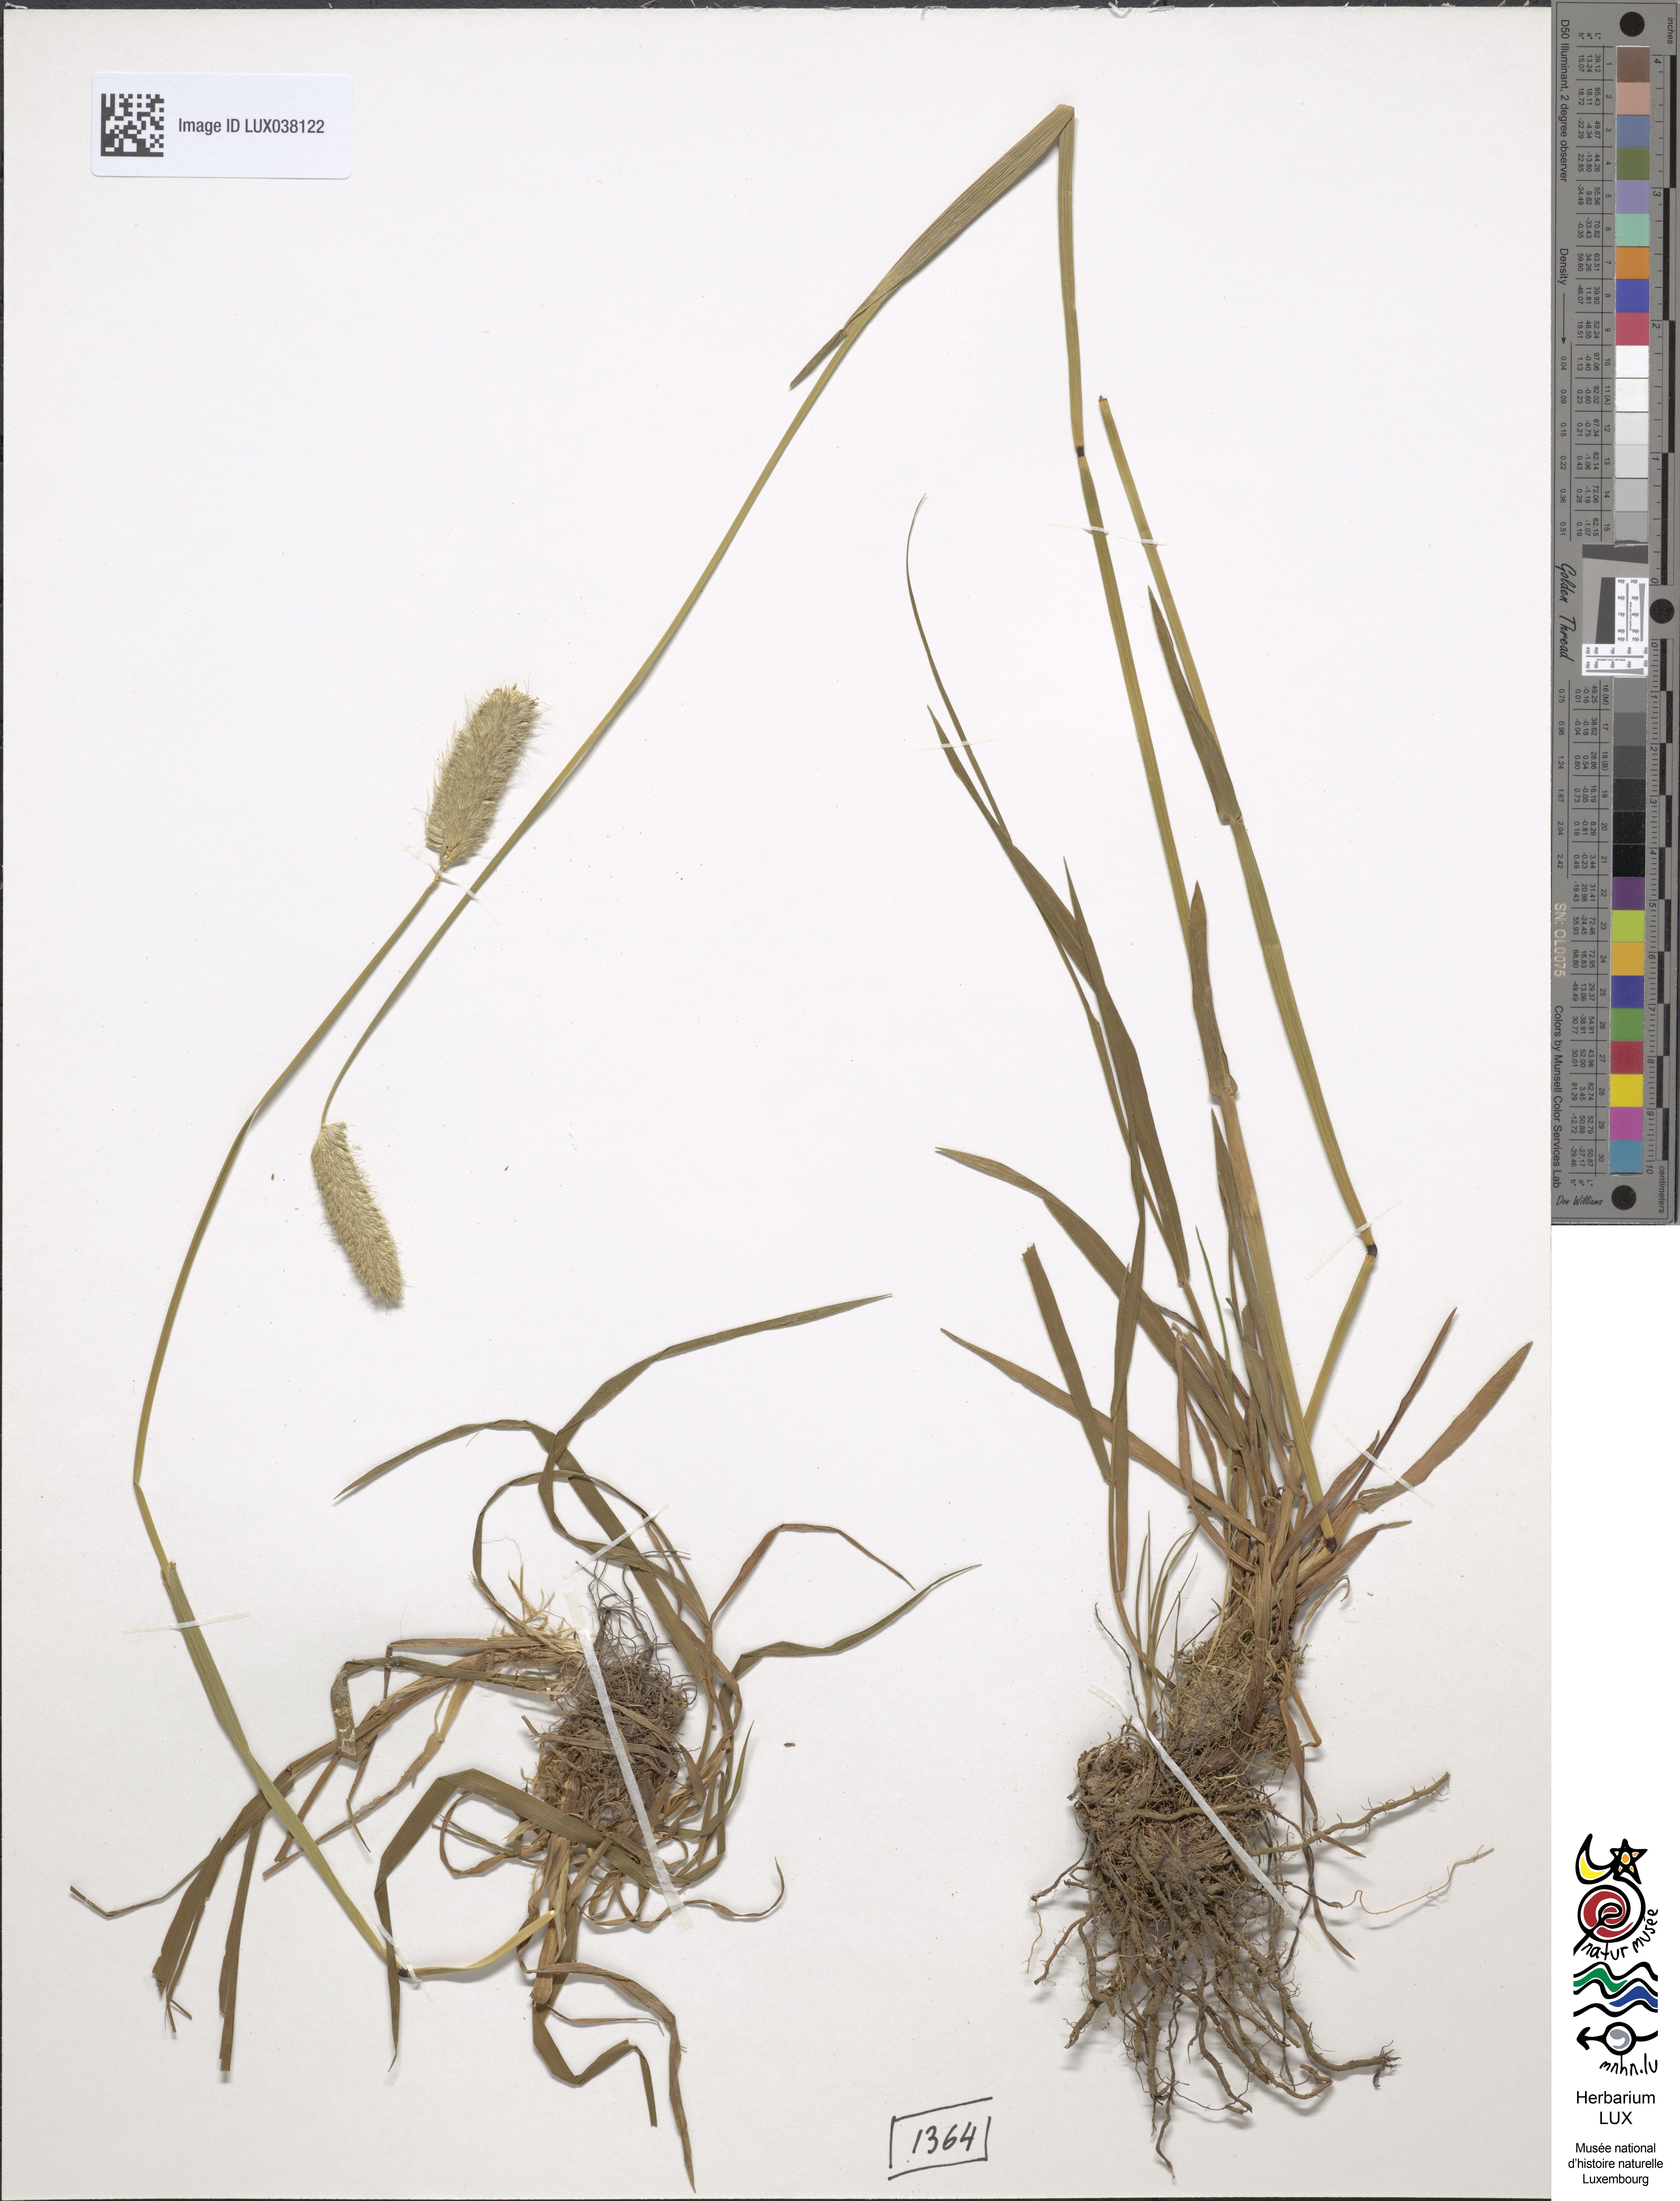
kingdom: Plantae
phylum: Tracheophyta
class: Liliopsida
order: Poales
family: Poaceae
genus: Alopecurus
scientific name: Alopecurus pratensis
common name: Meadow foxtail
